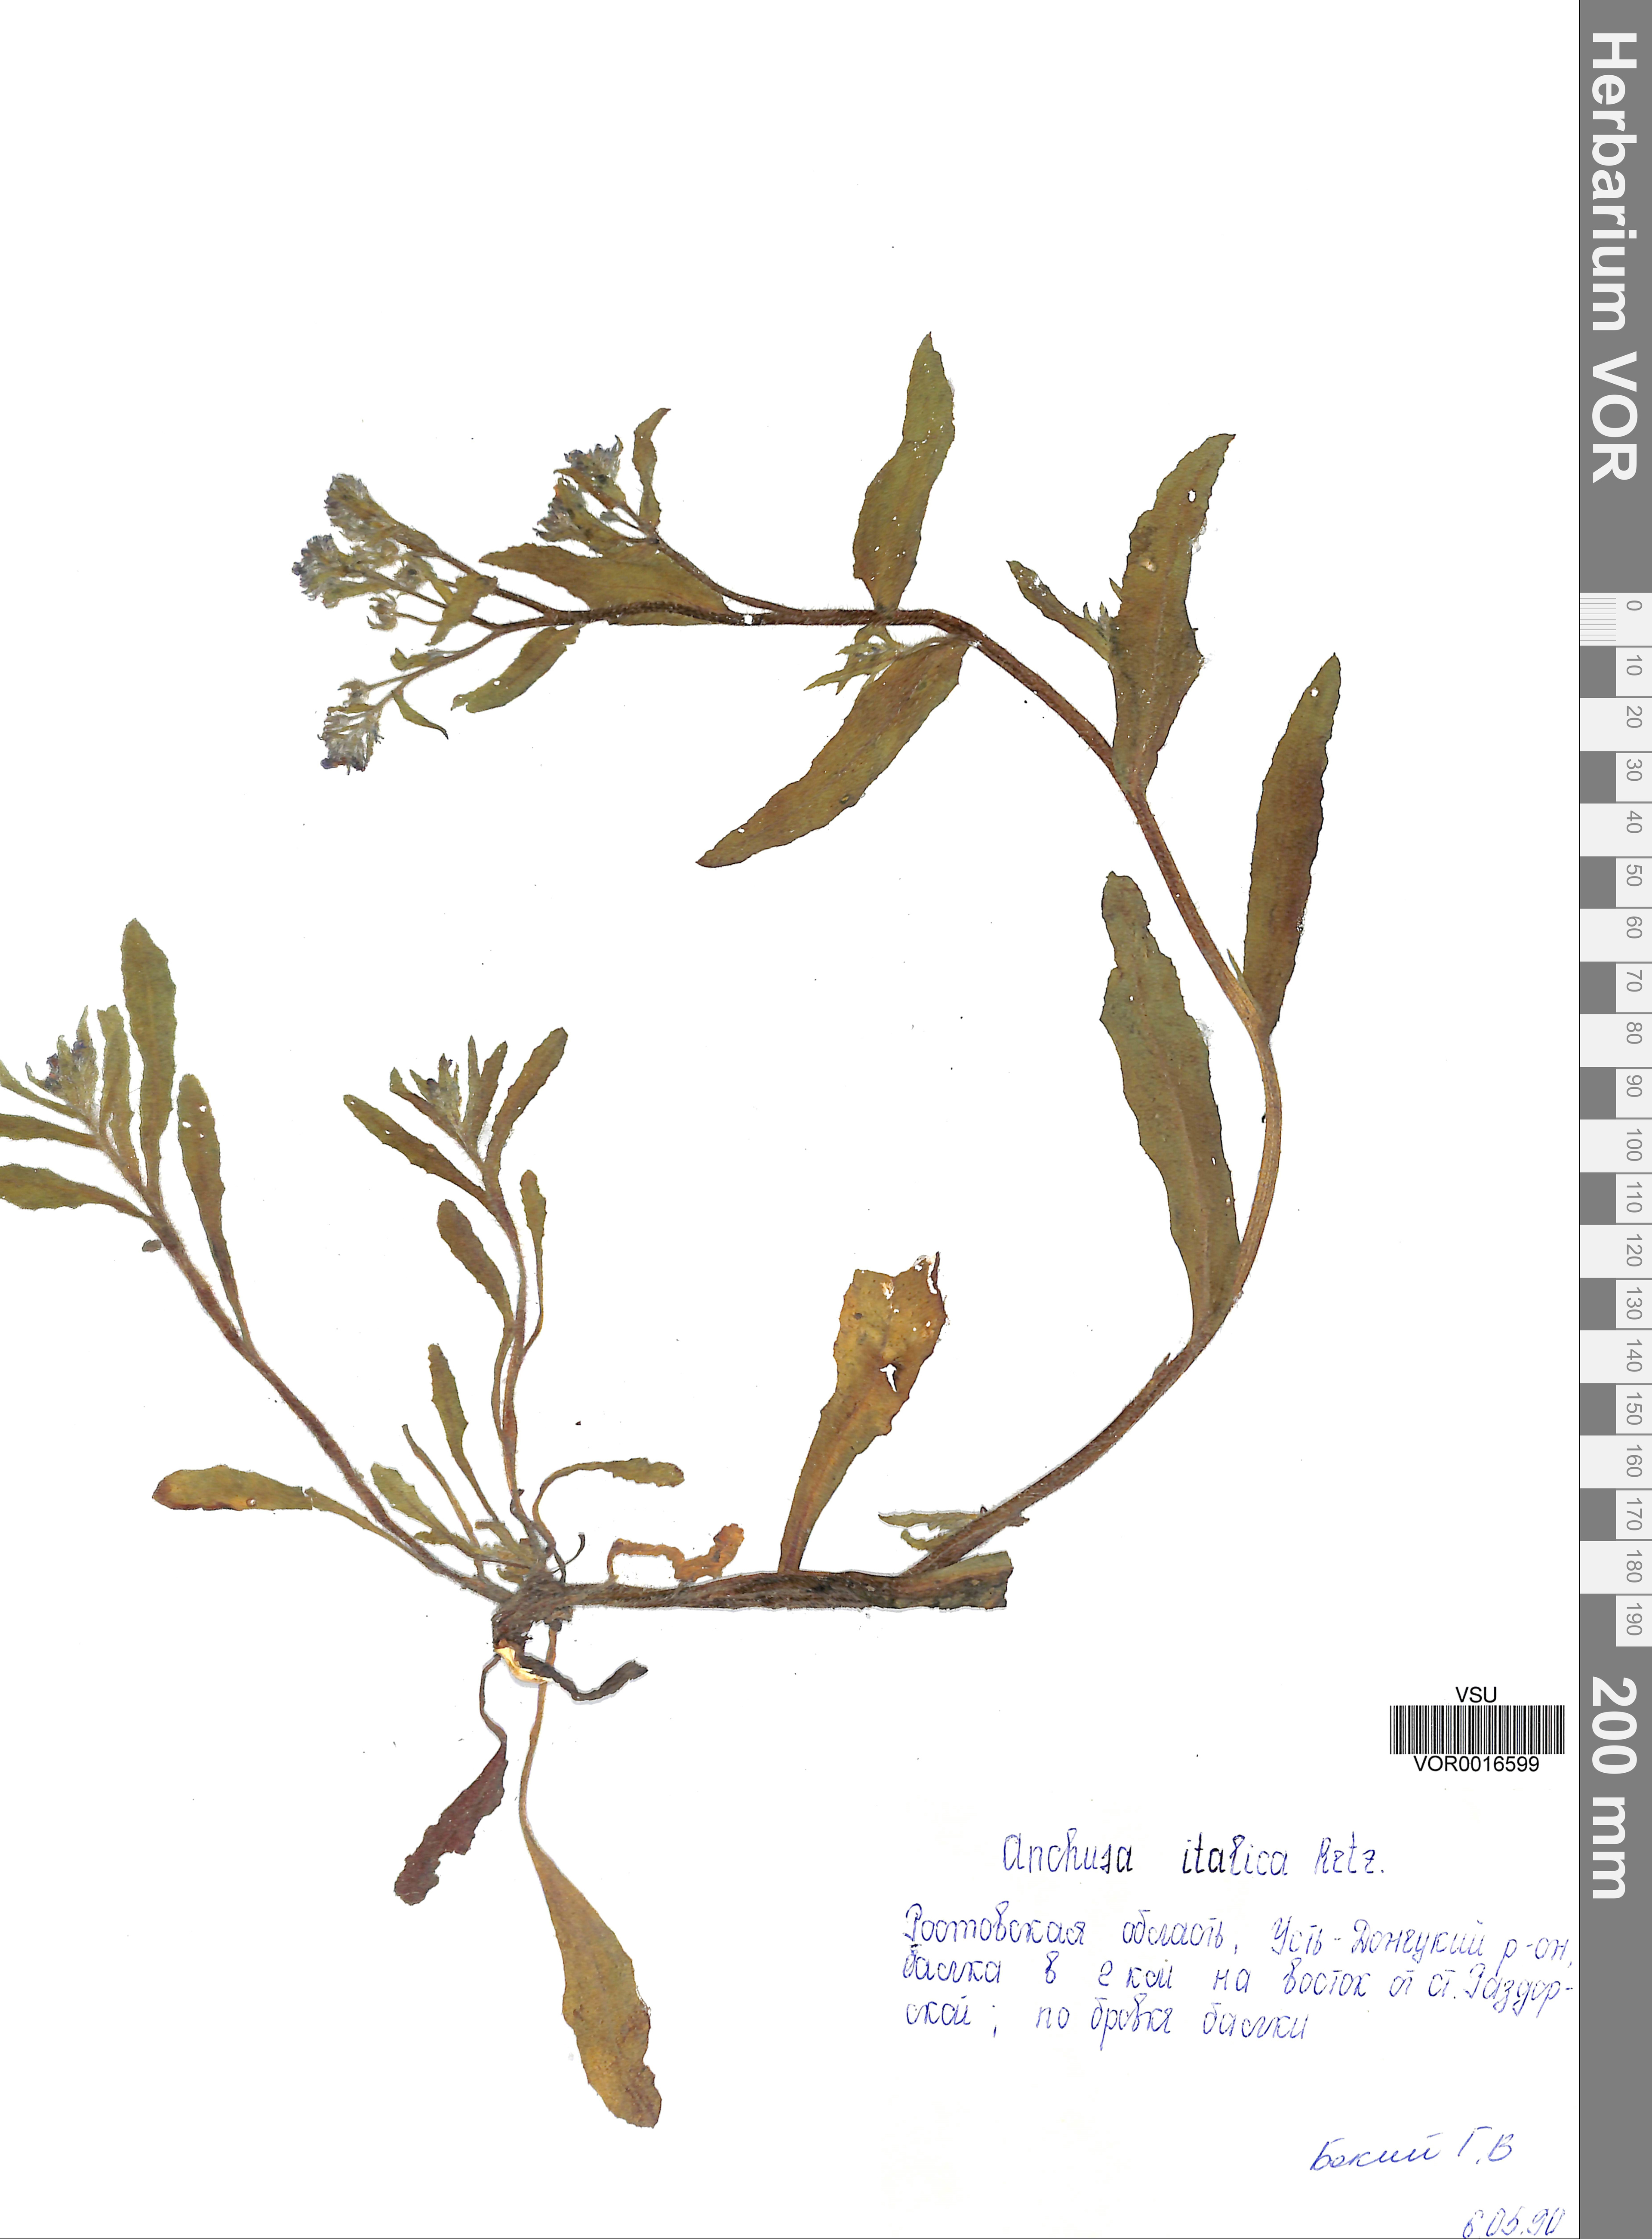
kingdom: Plantae
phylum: Tracheophyta
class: Magnoliopsida
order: Boraginales
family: Boraginaceae
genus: Anchusa
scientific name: Anchusa azurea
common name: Garden anchusa
